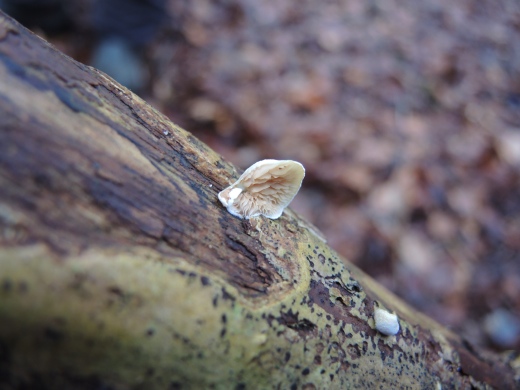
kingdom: Fungi
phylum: Basidiomycota
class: Agaricomycetes
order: Agaricales
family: Crepidotaceae
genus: Crepidotus
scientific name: Crepidotus cesatii
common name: almindelig muslingesvamp
